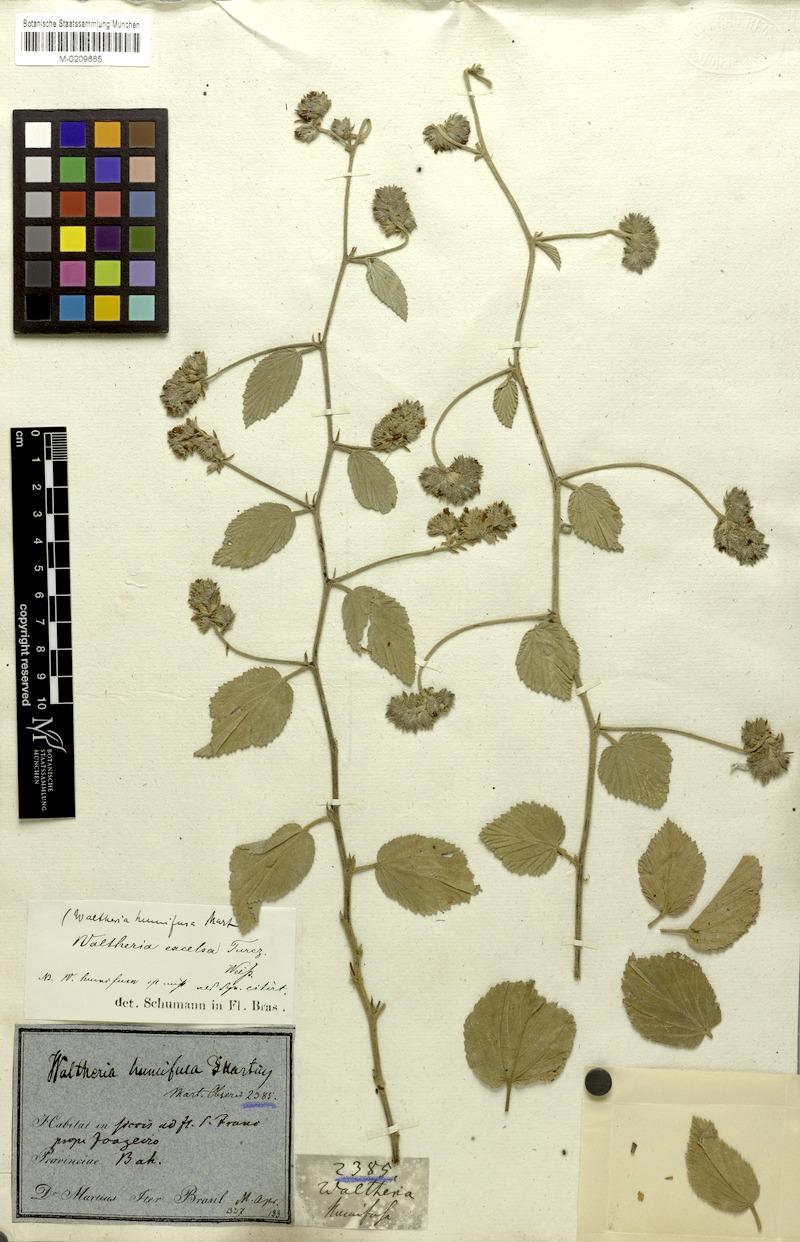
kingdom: Plantae
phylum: Tracheophyta
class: Magnoliopsida
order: Malvales
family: Malvaceae
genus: Waltheria
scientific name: Waltheria excelsa
